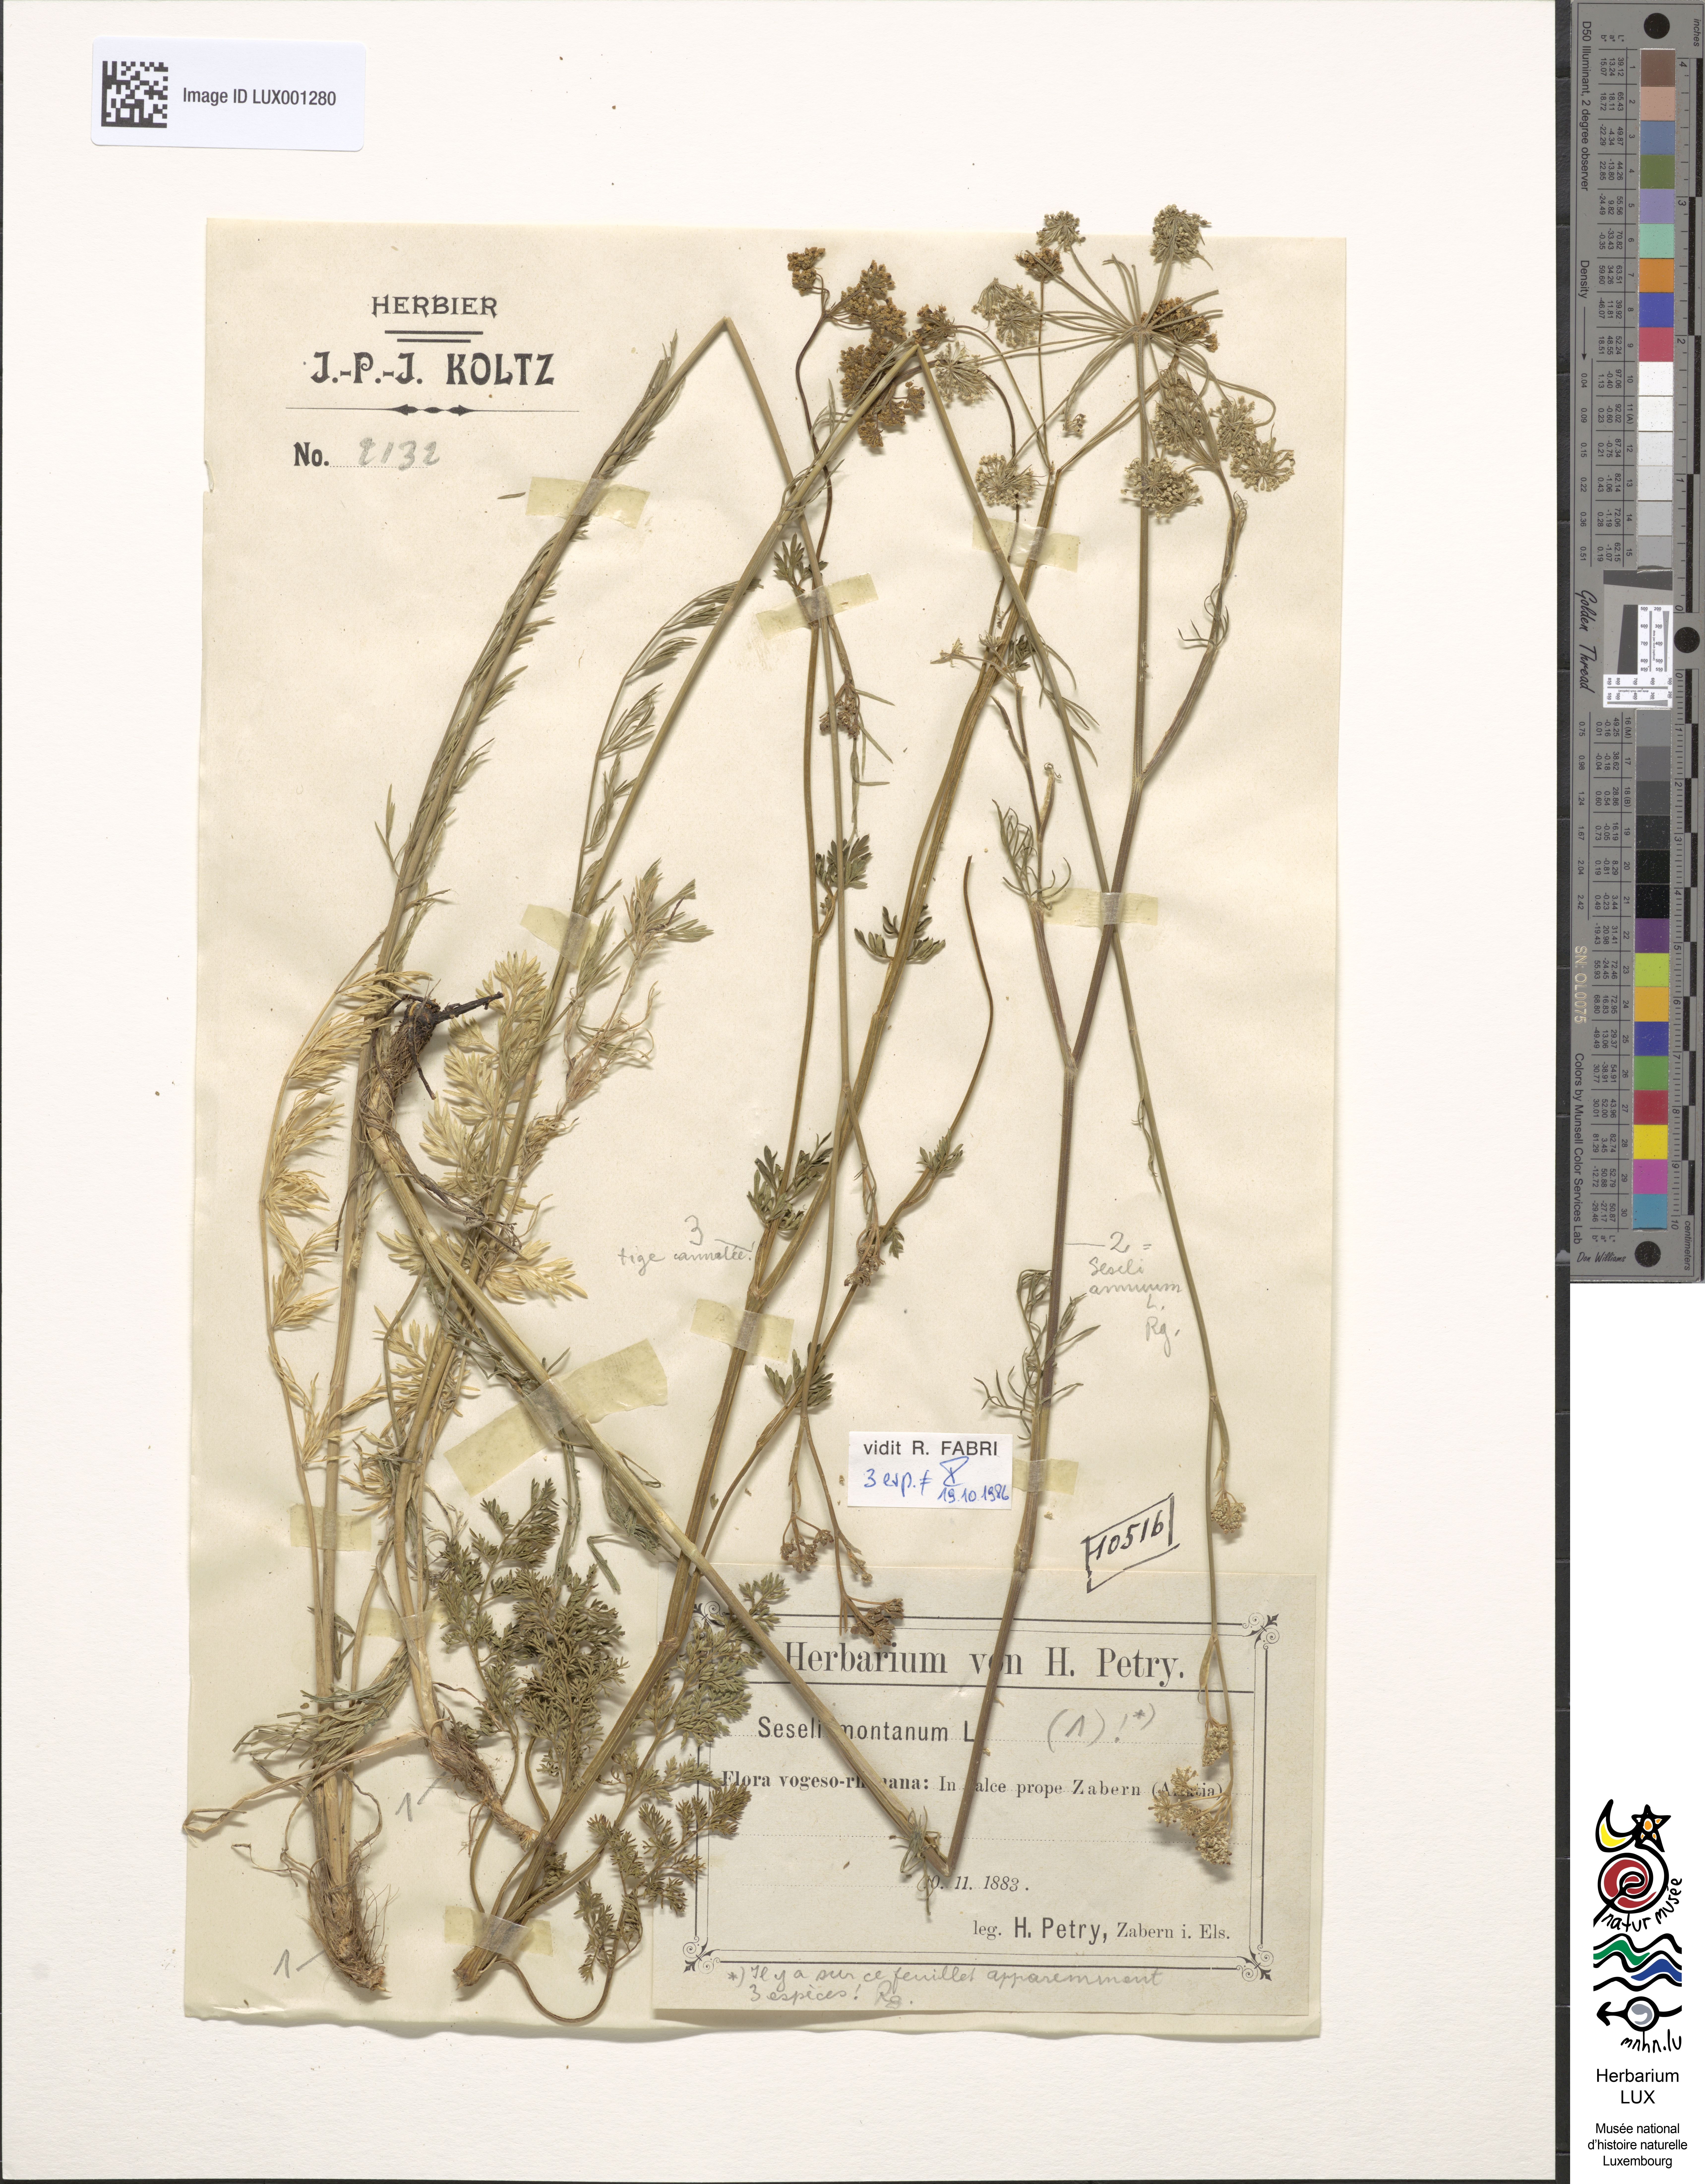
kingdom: Plantae
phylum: Tracheophyta
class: Magnoliopsida
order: Apiales
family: Apiaceae
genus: Seseli
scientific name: Seseli montanum
